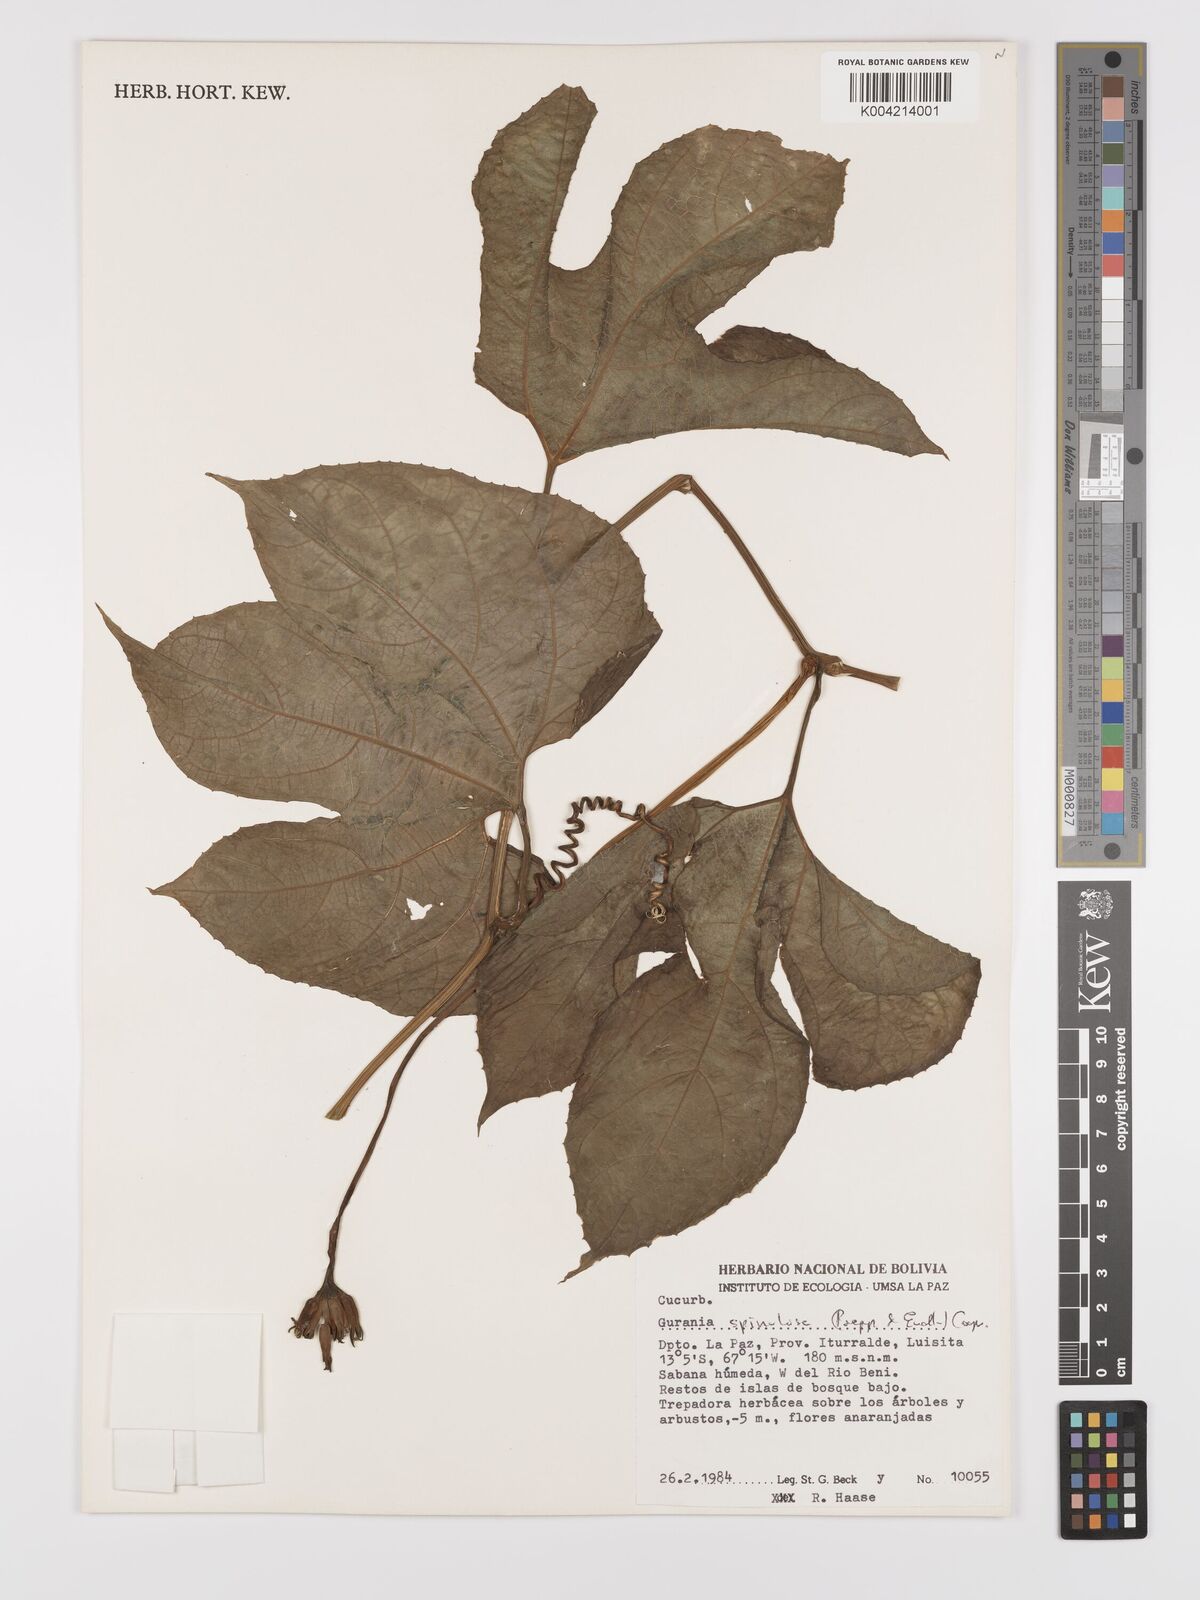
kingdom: Plantae
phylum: Tracheophyta
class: Magnoliopsida
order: Cucurbitales
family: Cucurbitaceae
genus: Gurania
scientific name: Gurania lobata
